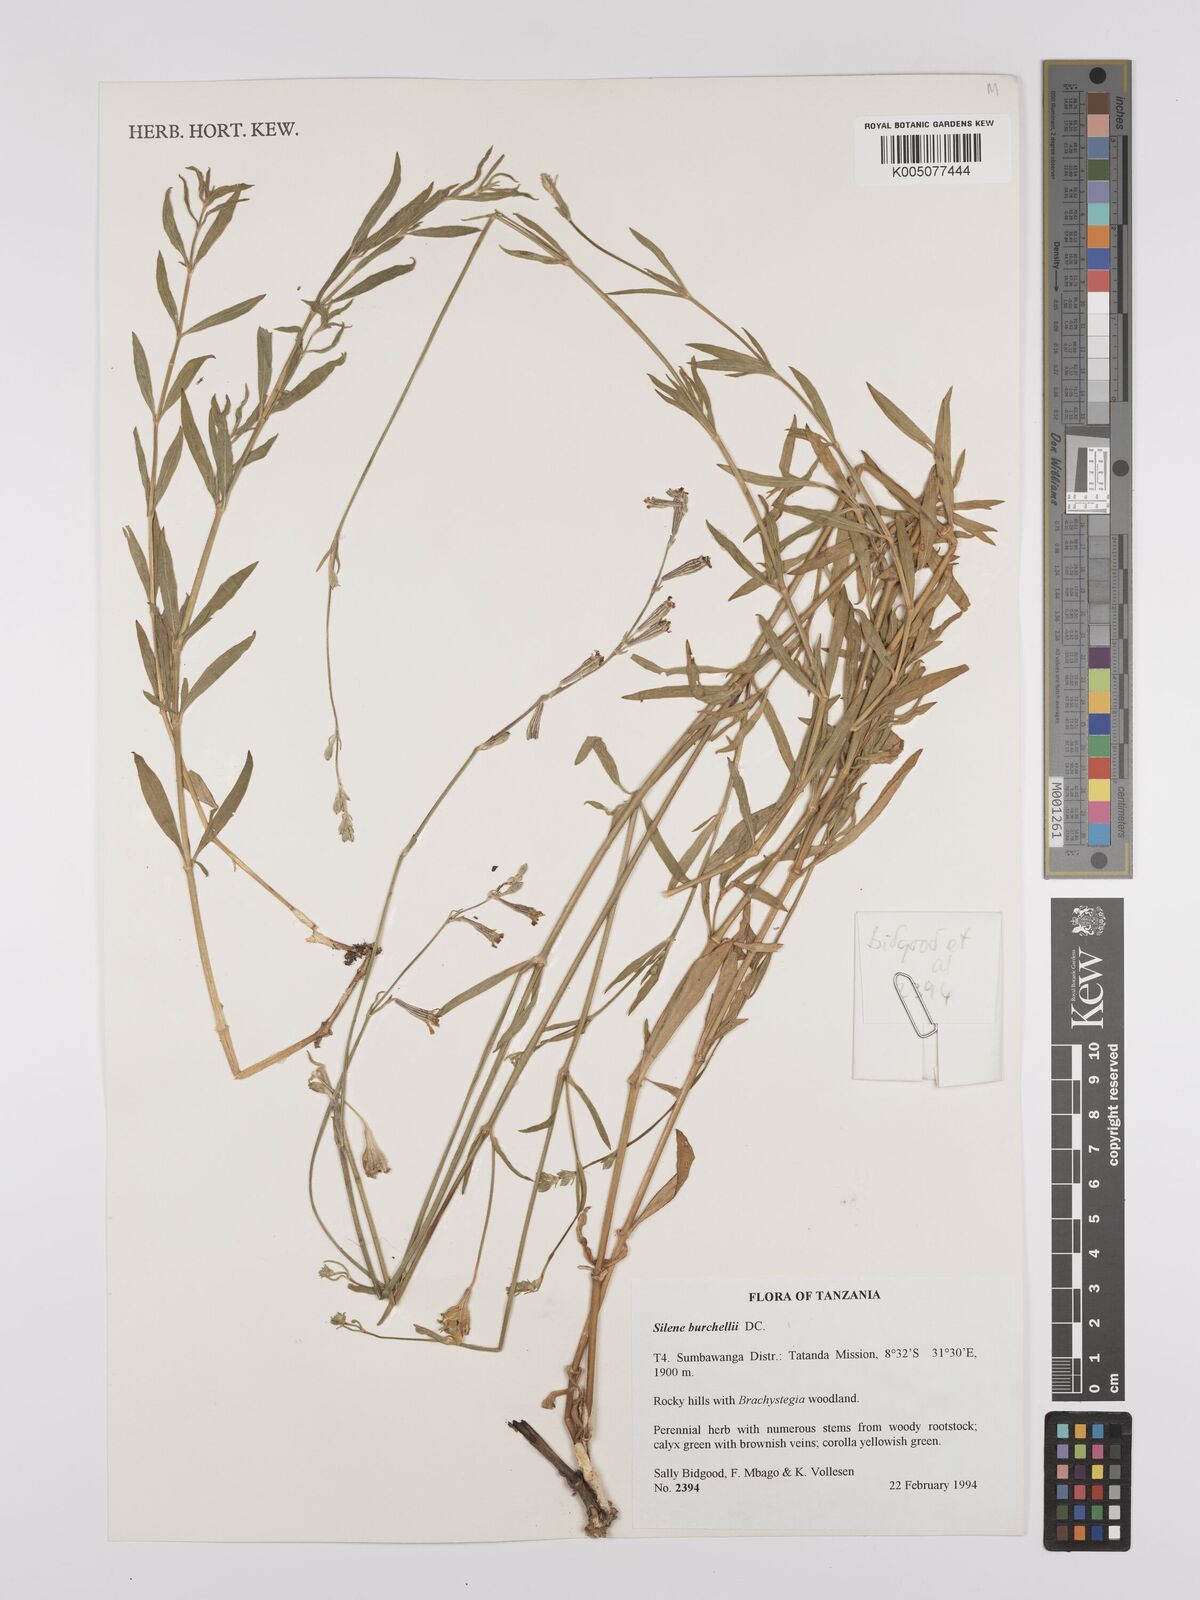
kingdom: Plantae
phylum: Tracheophyta
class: Magnoliopsida
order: Caryophyllales
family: Caryophyllaceae
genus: Silene
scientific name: Silene burchellii
